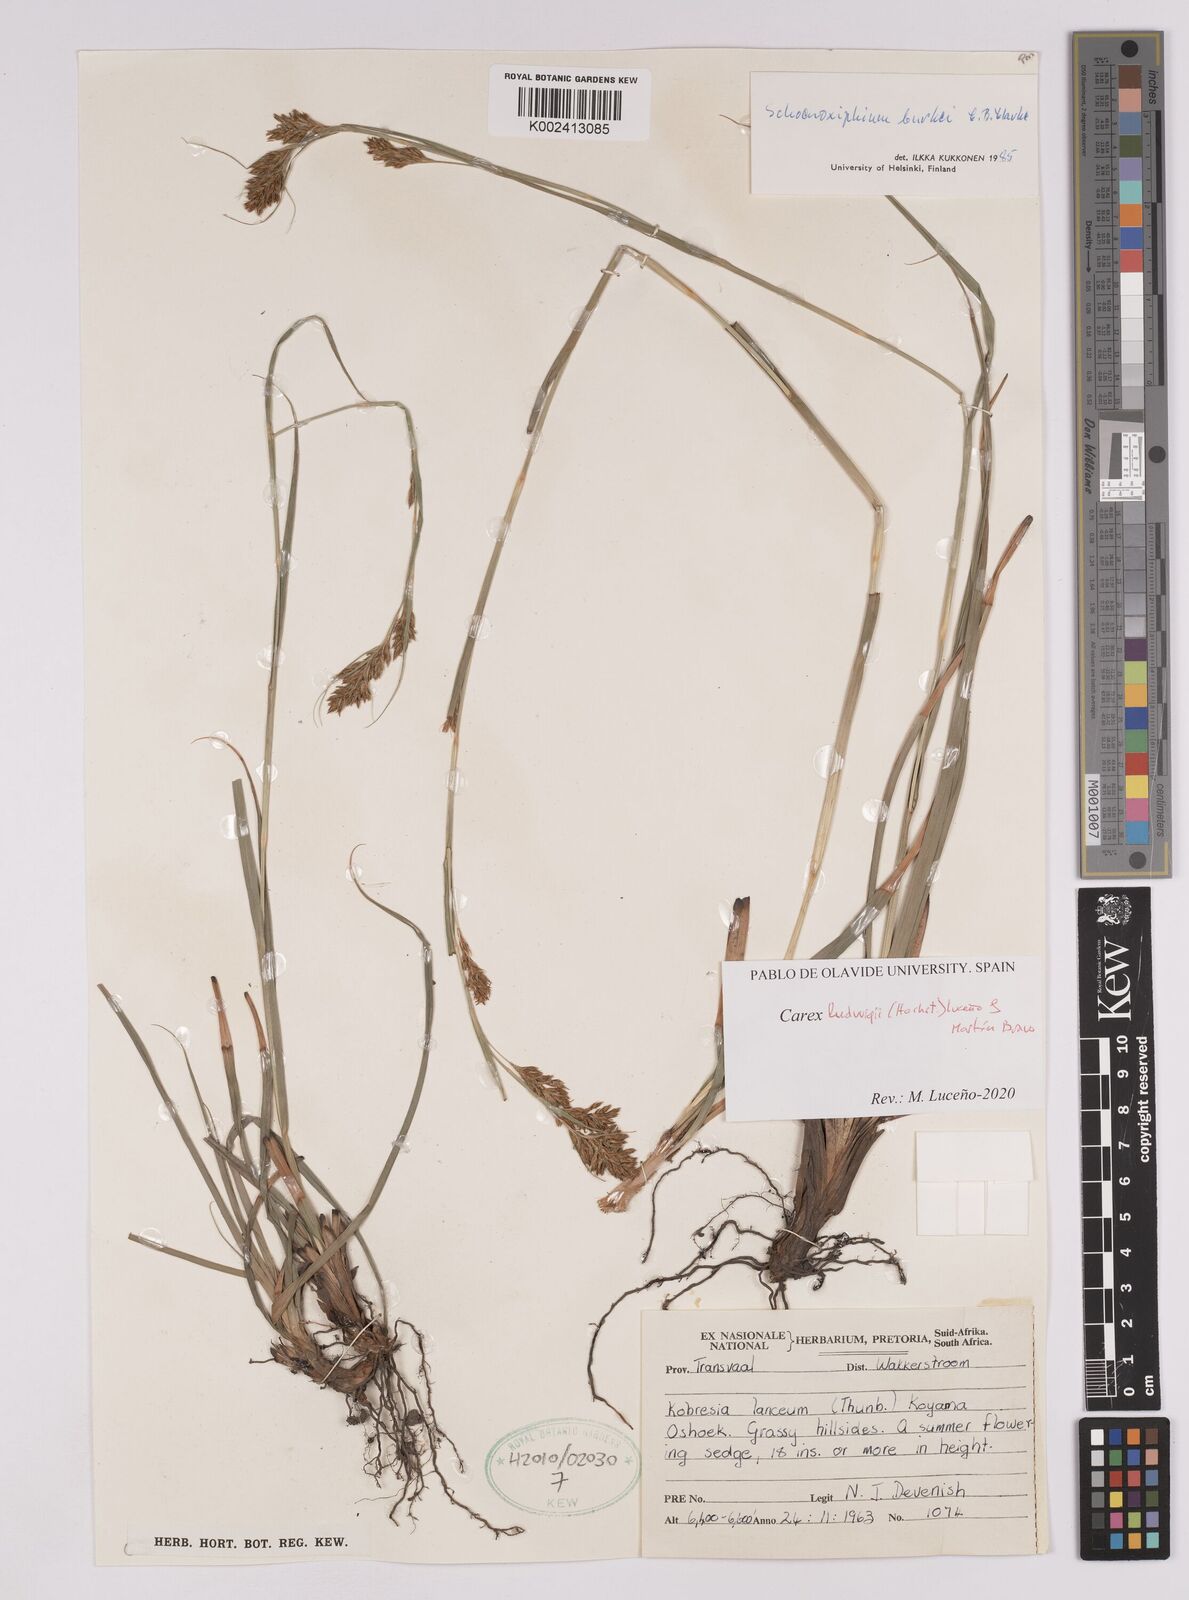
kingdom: Plantae
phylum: Tracheophyta
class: Liliopsida
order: Poales
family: Cyperaceae
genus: Carex
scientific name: Carex ludwigii
